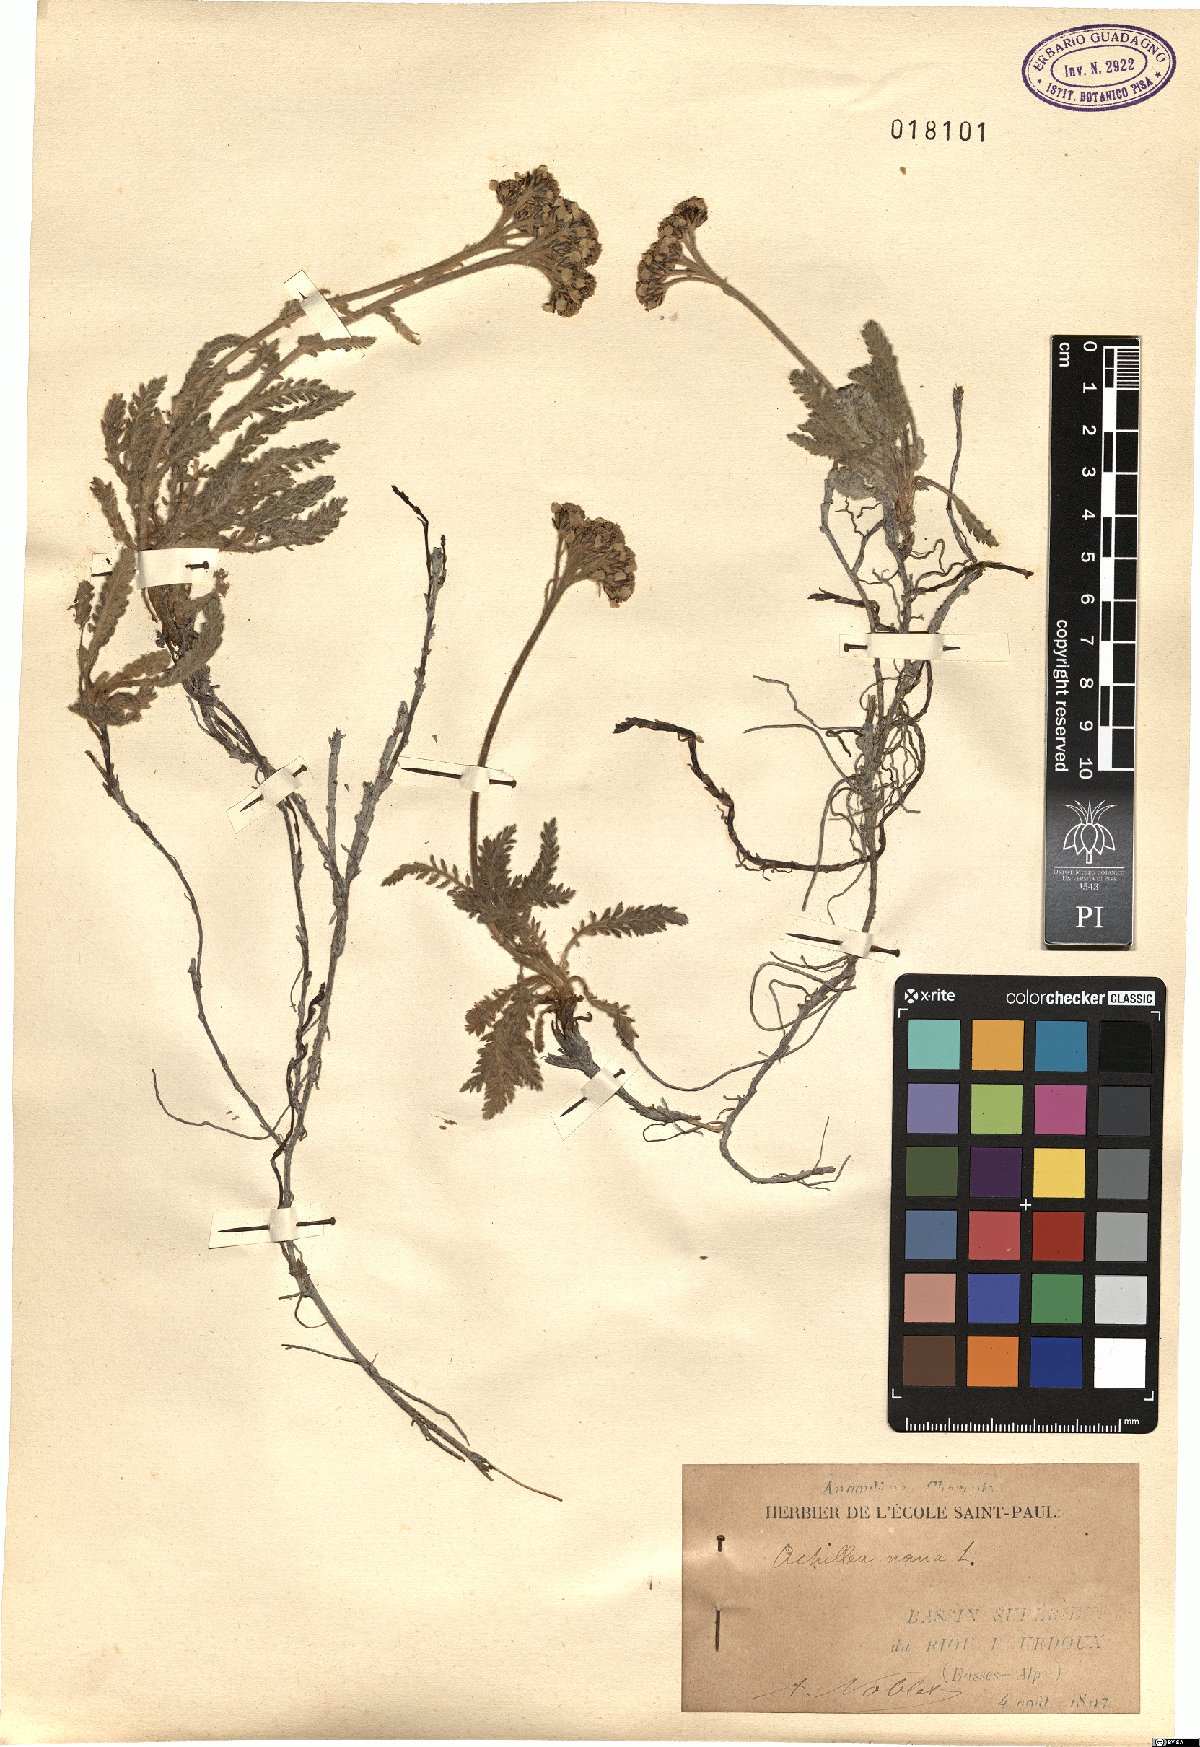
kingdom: Plantae
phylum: Tracheophyta
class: Magnoliopsida
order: Asterales
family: Asteraceae
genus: Achillea
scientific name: Achillea nana
